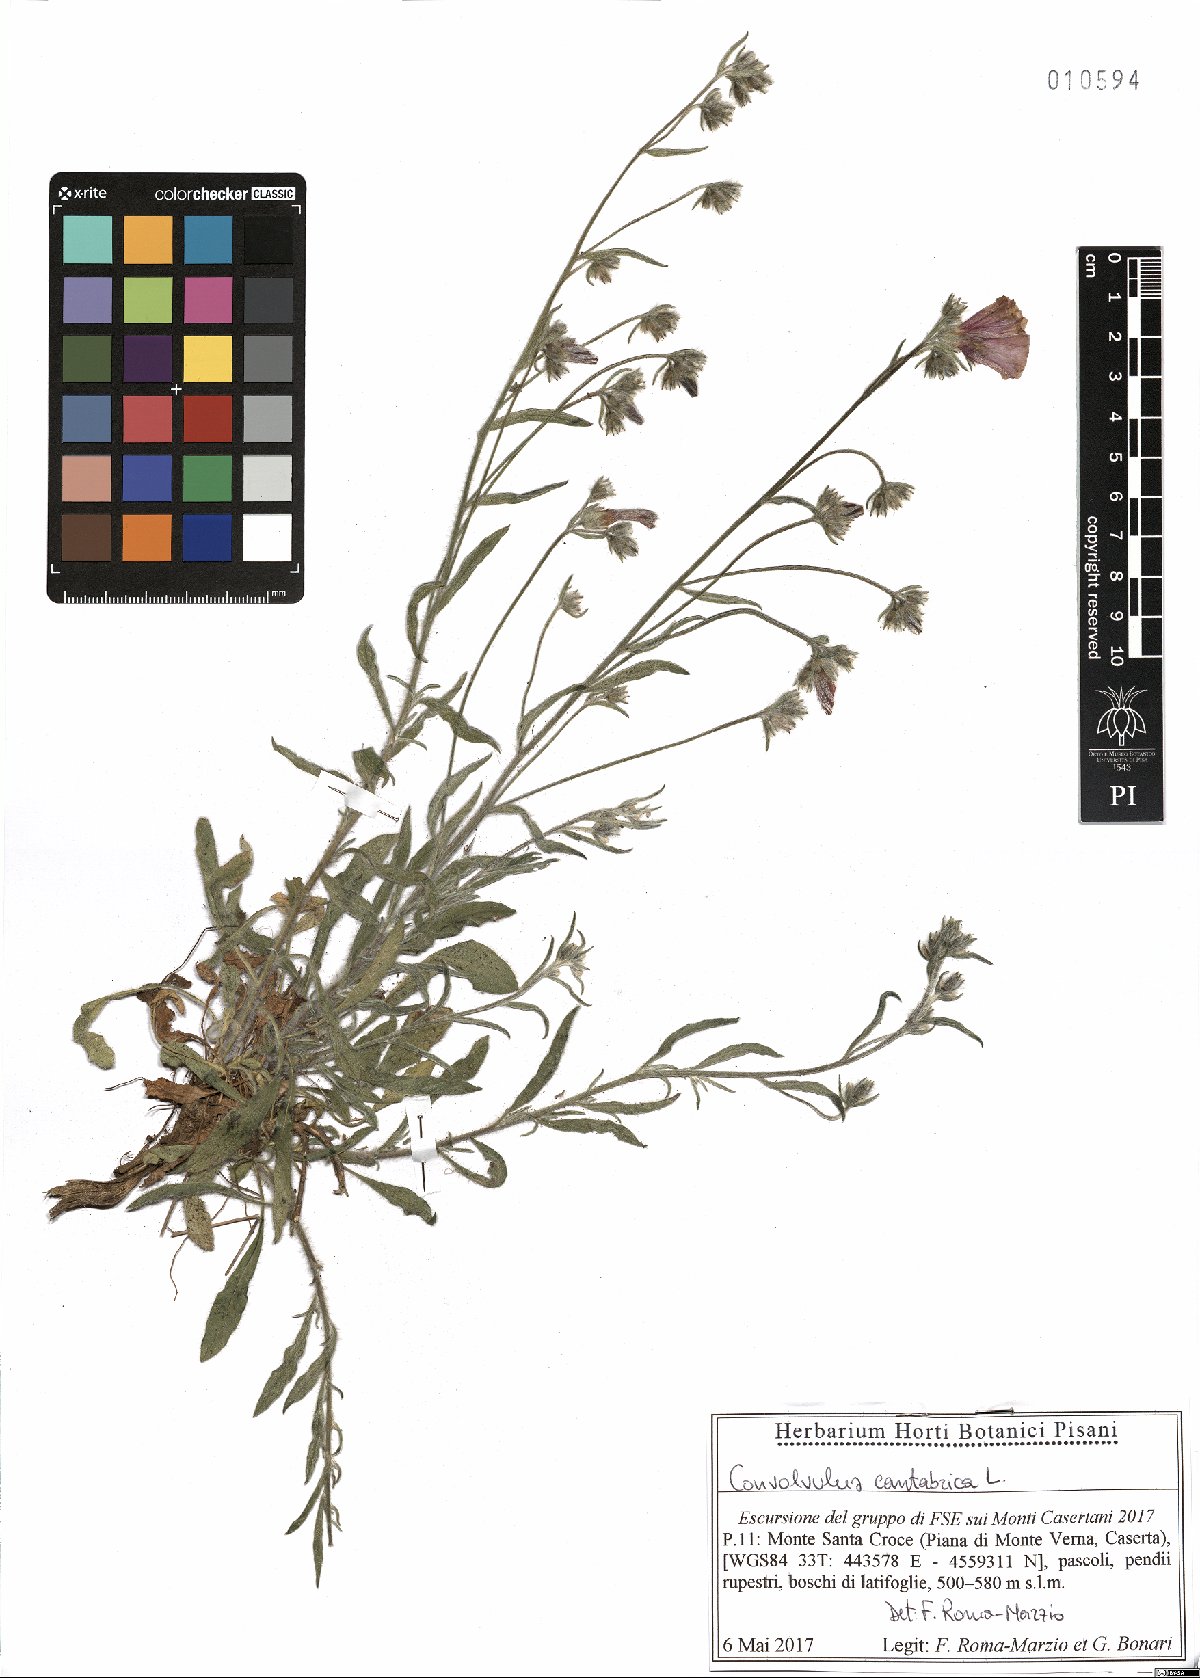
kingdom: Plantae
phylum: Tracheophyta
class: Magnoliopsida
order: Solanales
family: Convolvulaceae
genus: Convolvulus
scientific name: Convolvulus cantabrica
